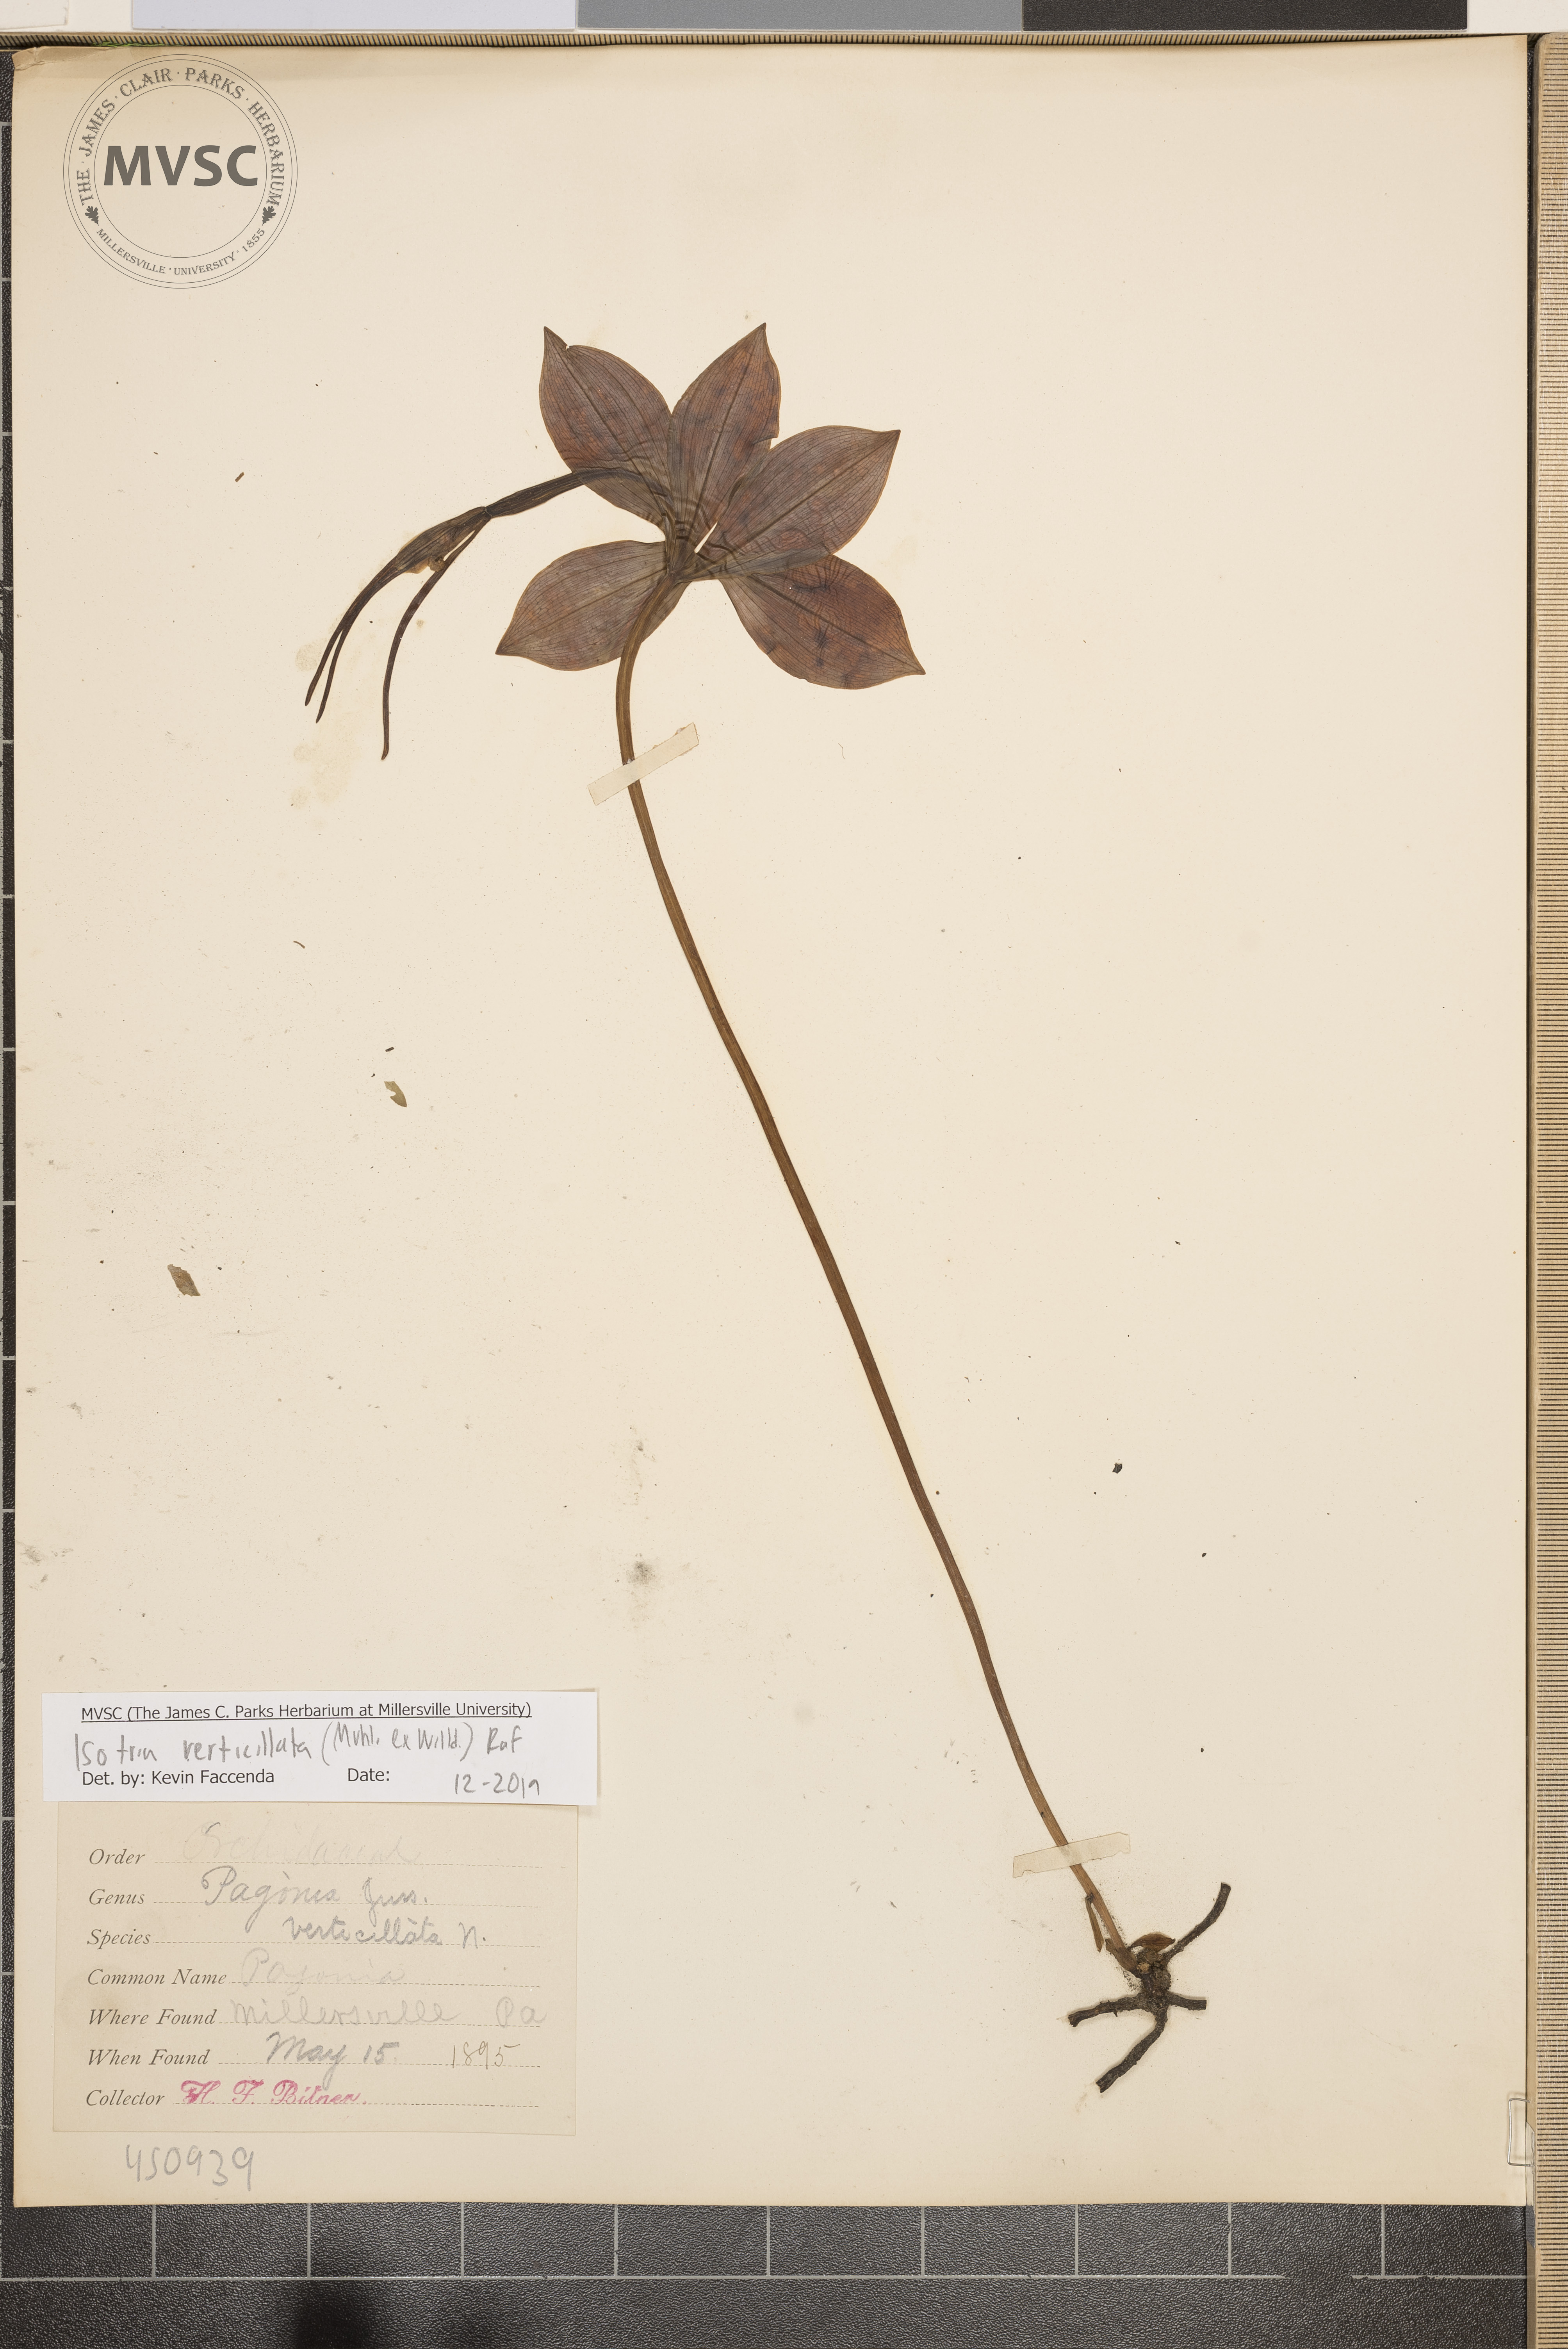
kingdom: Plantae
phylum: Tracheophyta
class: Liliopsida
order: Asparagales
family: Orchidaceae
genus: Isotria
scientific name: Isotria verticillata
